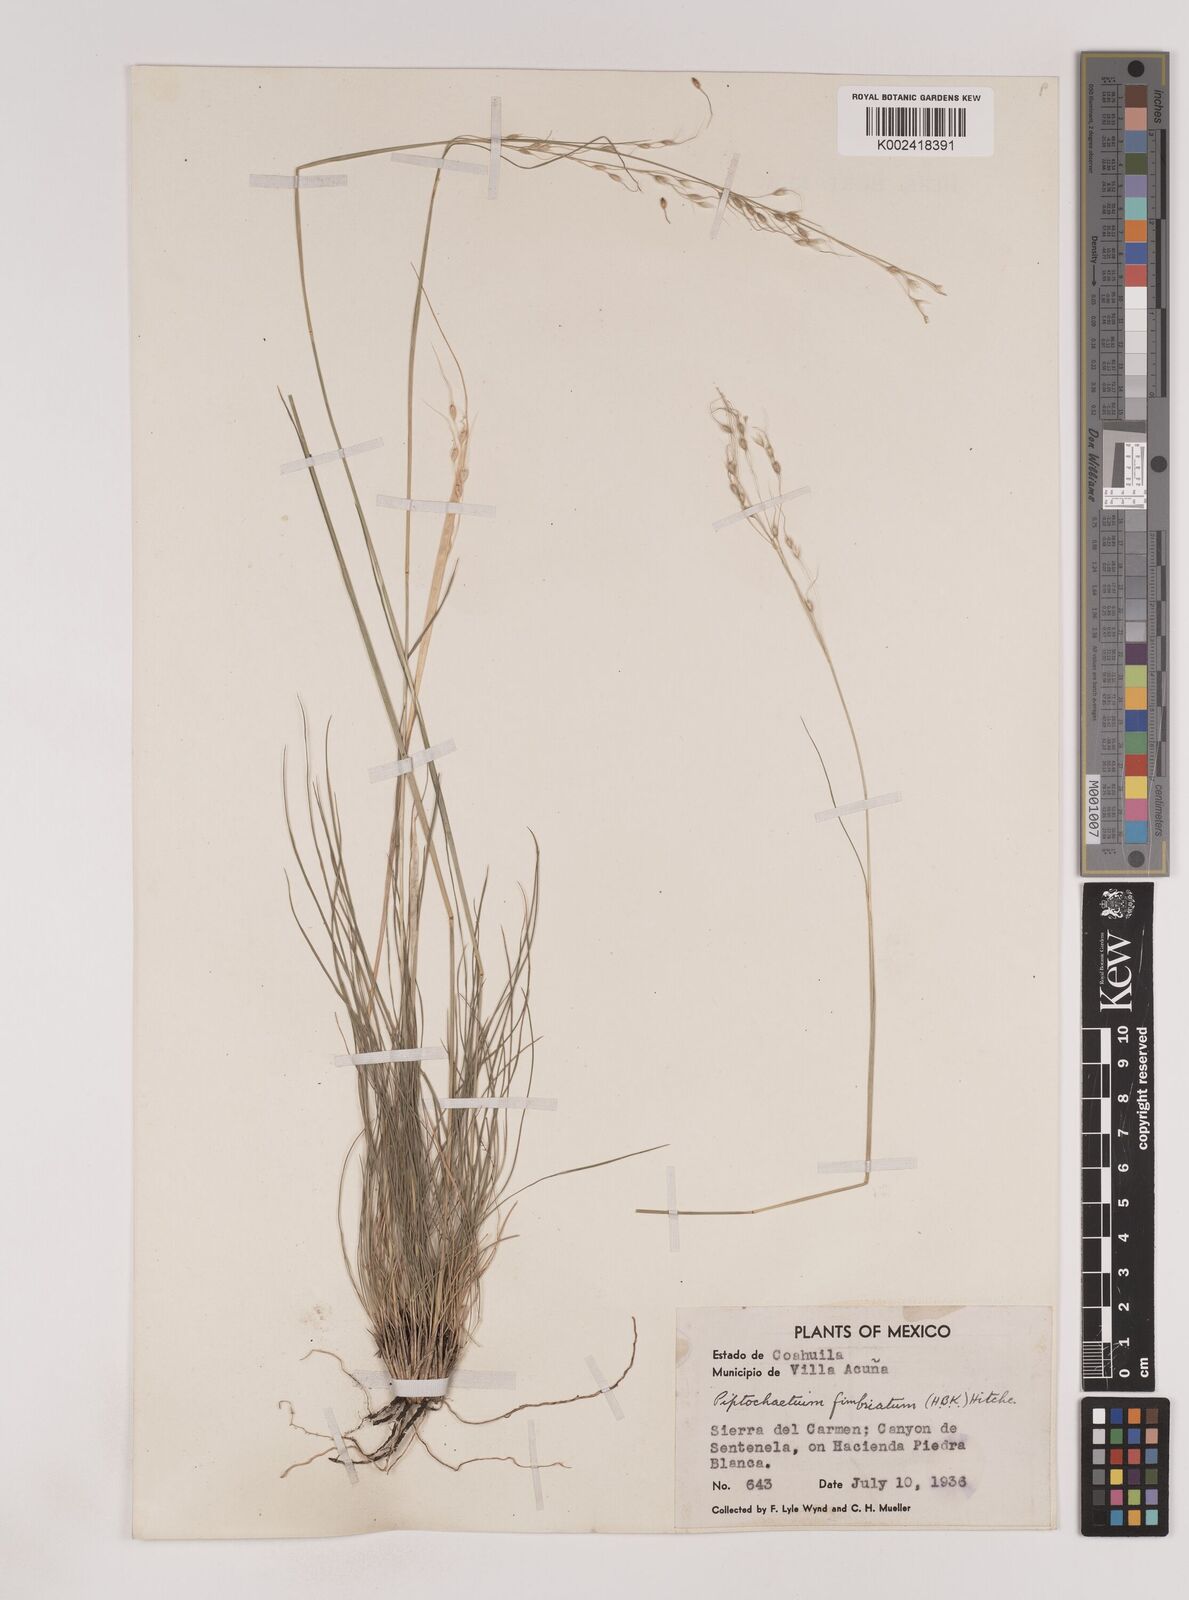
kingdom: Plantae
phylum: Tracheophyta
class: Liliopsida
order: Poales
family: Poaceae
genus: Piptochaetium
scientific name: Piptochaetium fimbriatum
